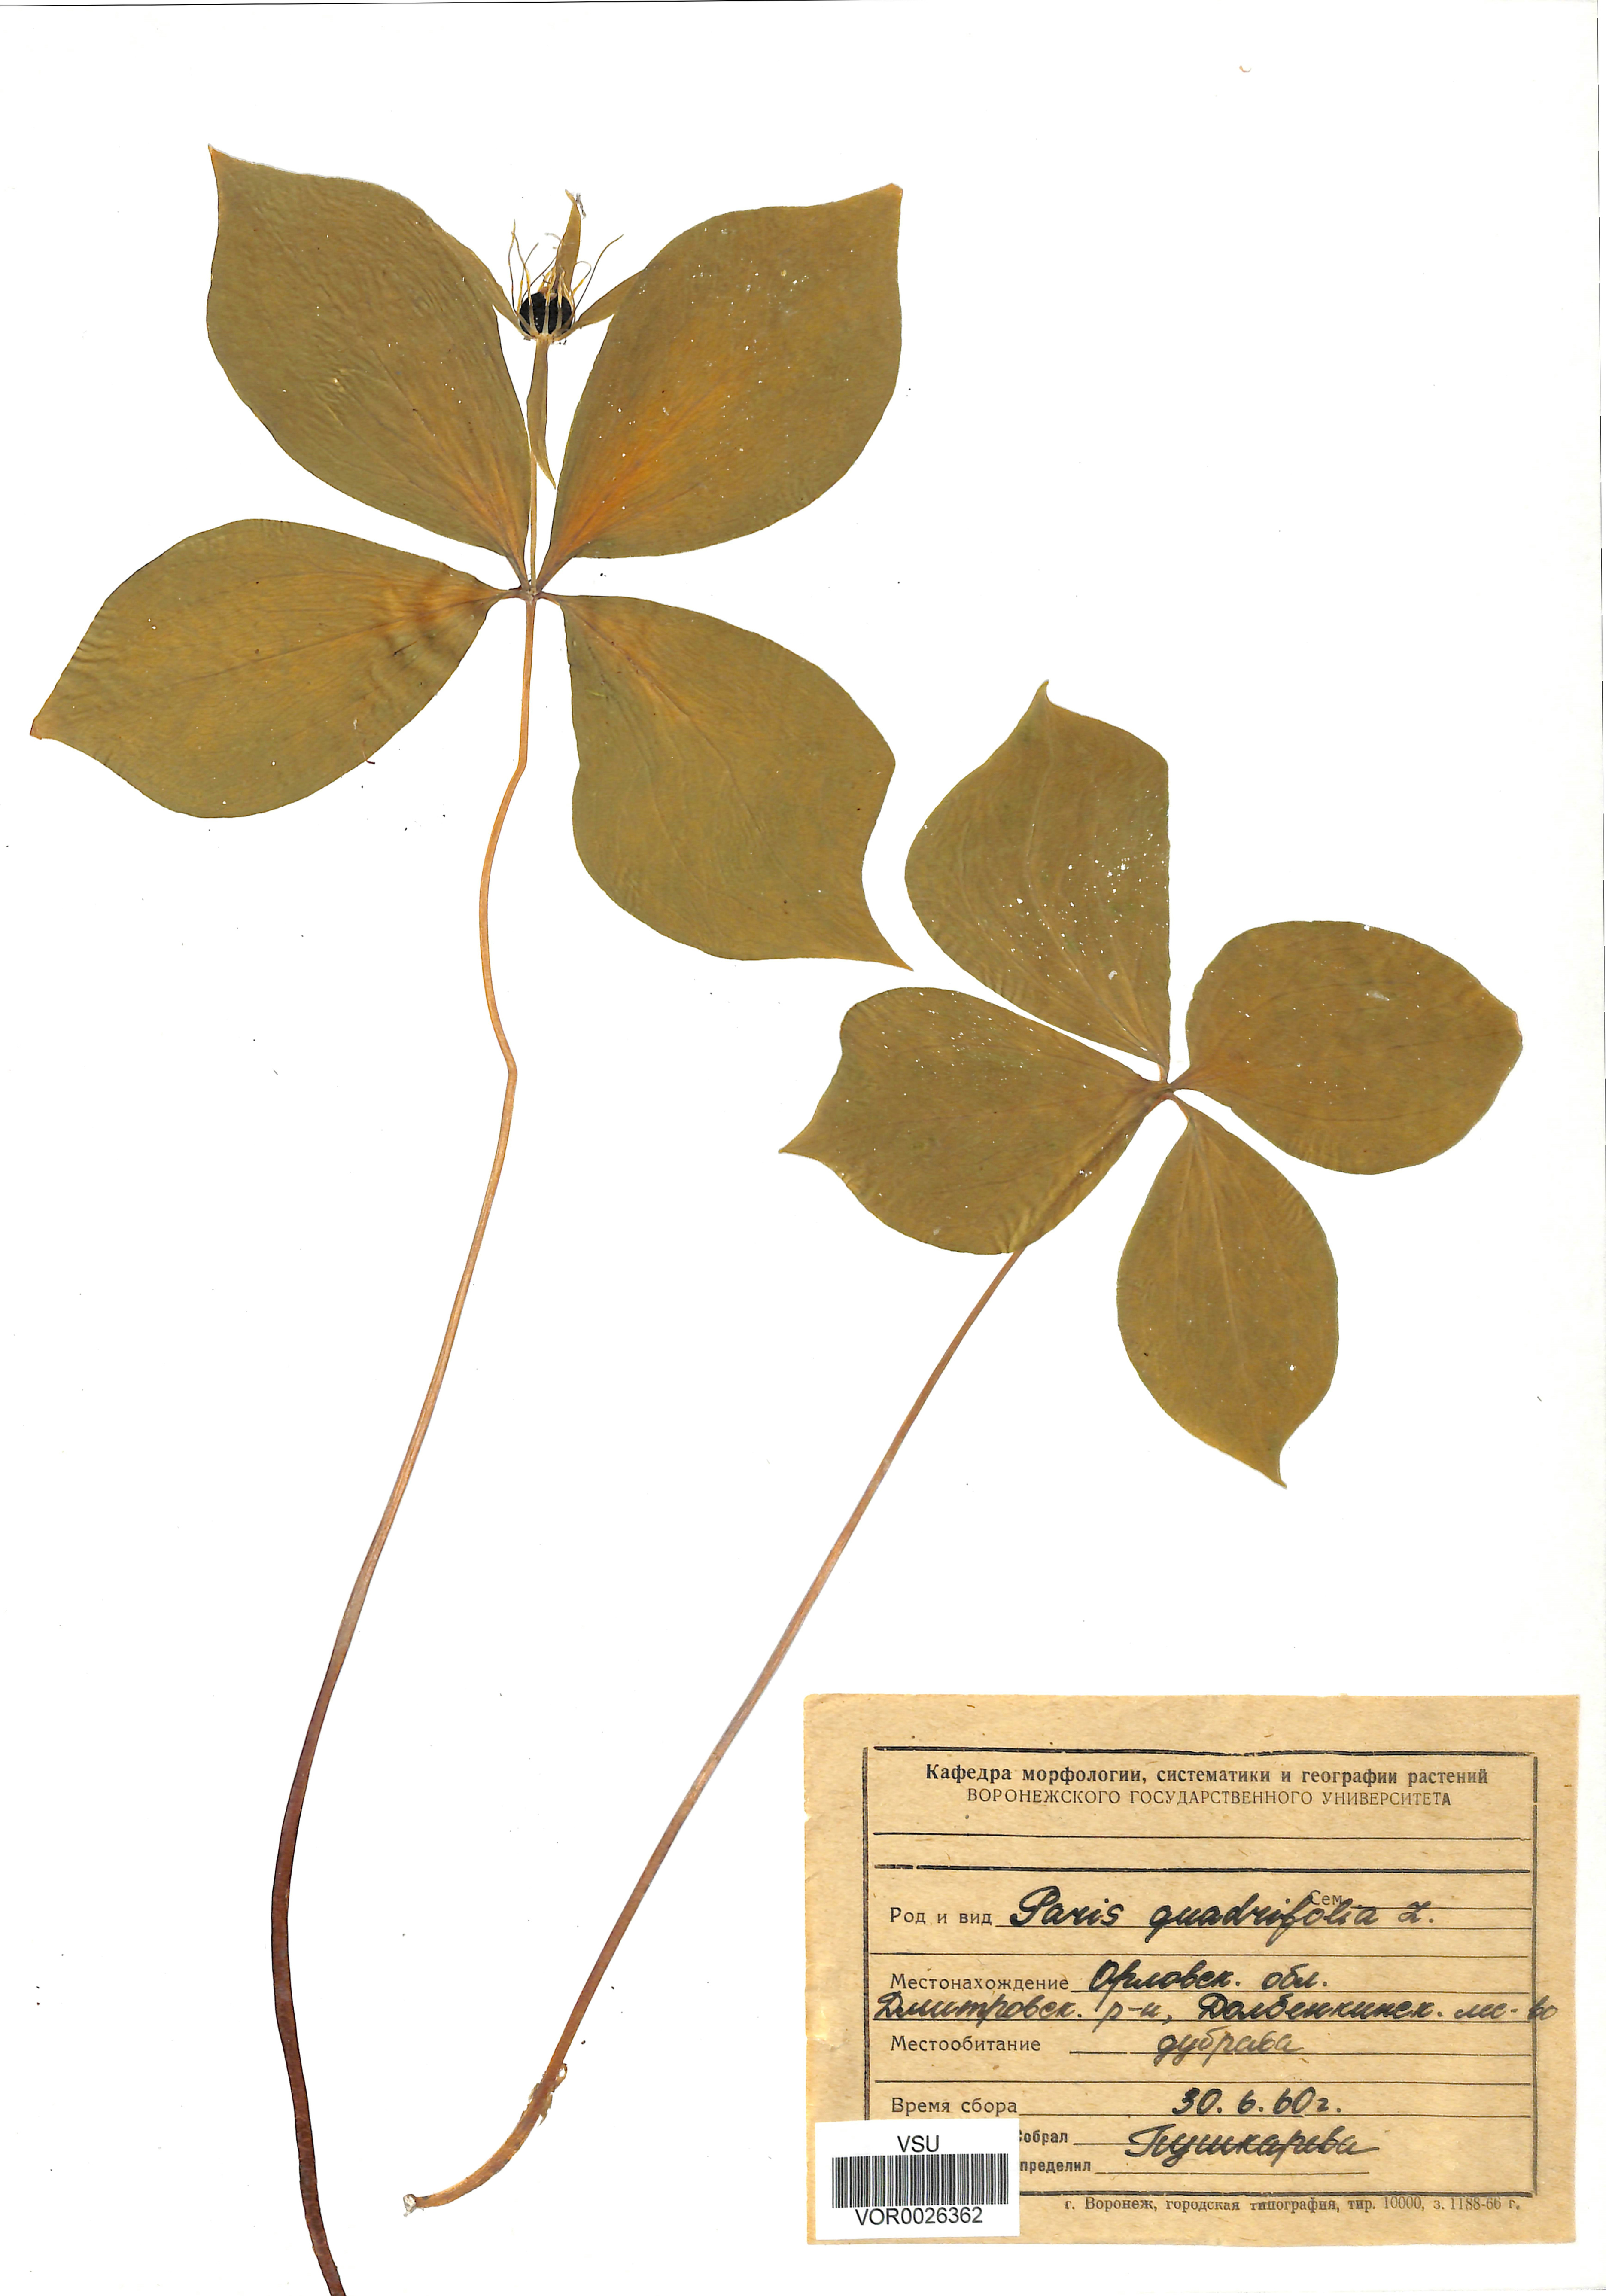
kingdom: Plantae
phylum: Tracheophyta
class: Liliopsida
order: Liliales
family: Melanthiaceae
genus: Paris
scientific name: Paris quadrifolia
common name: Herb-paris
